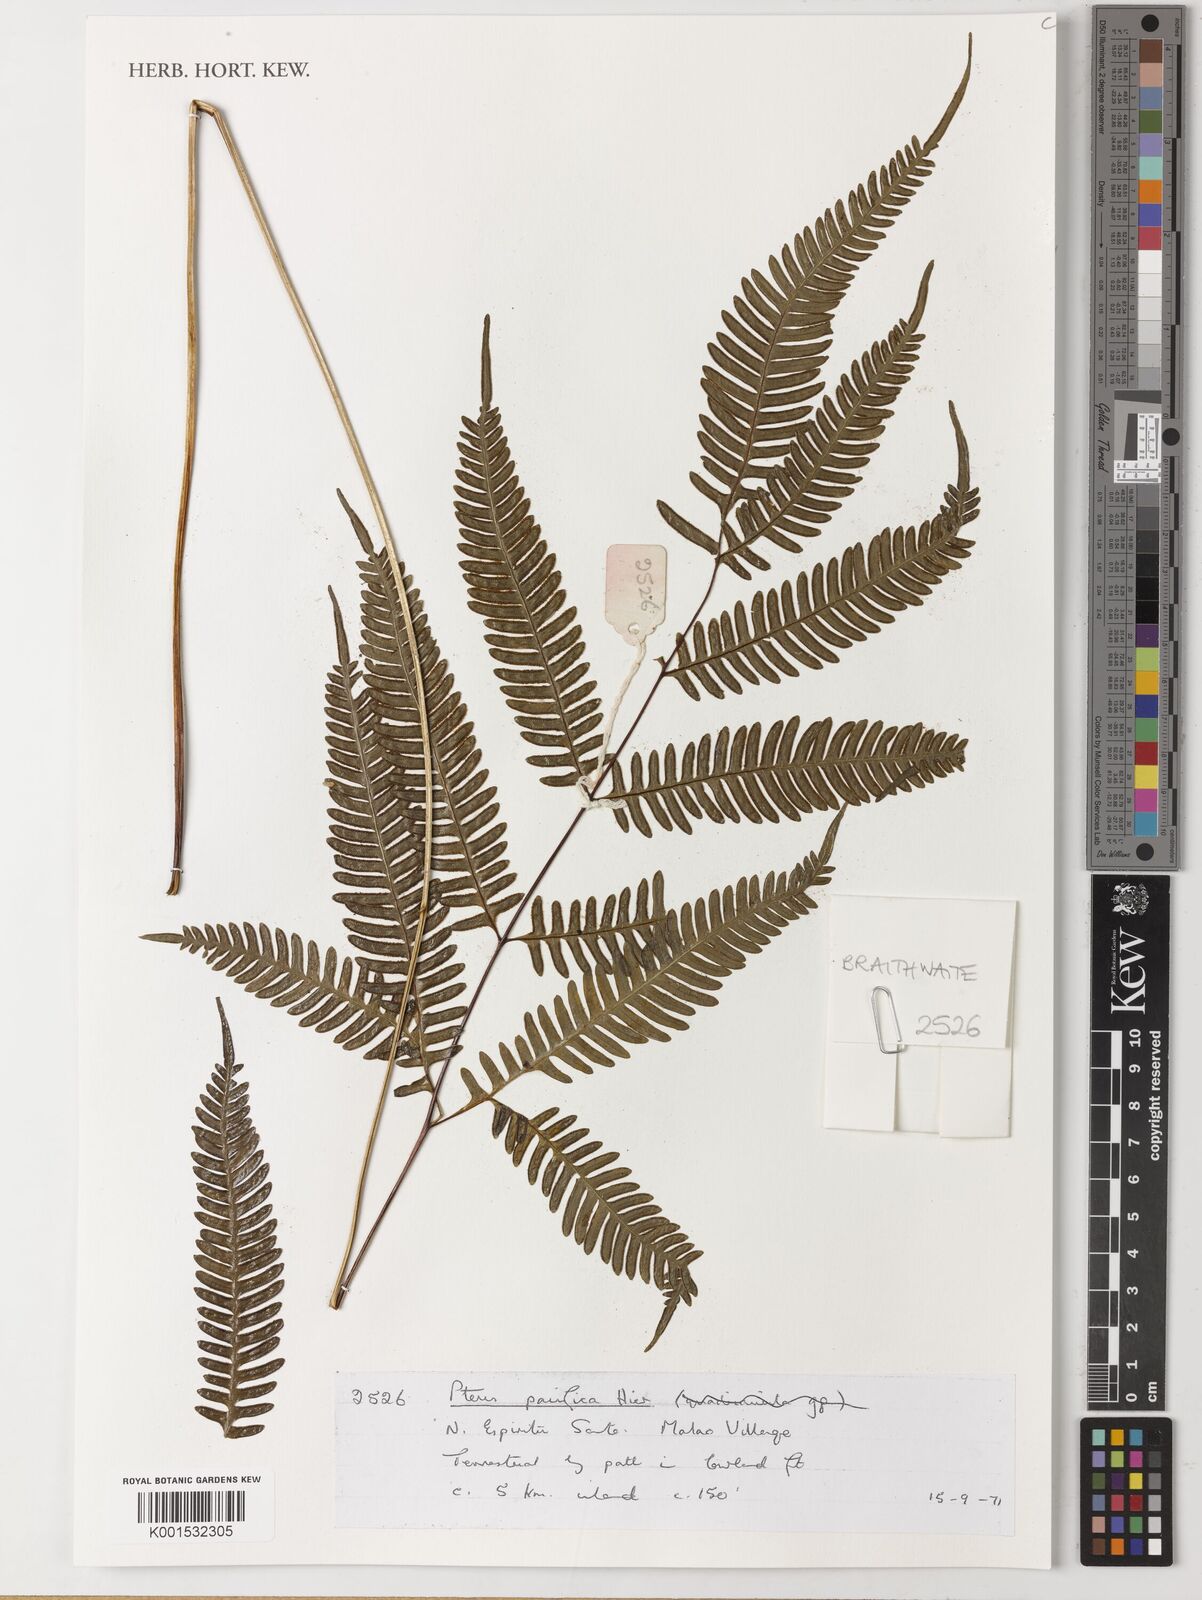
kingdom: Plantae
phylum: Tracheophyta
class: Polypodiopsida
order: Polypodiales
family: Pteridaceae
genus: Pteris
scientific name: Pteris biaurita
